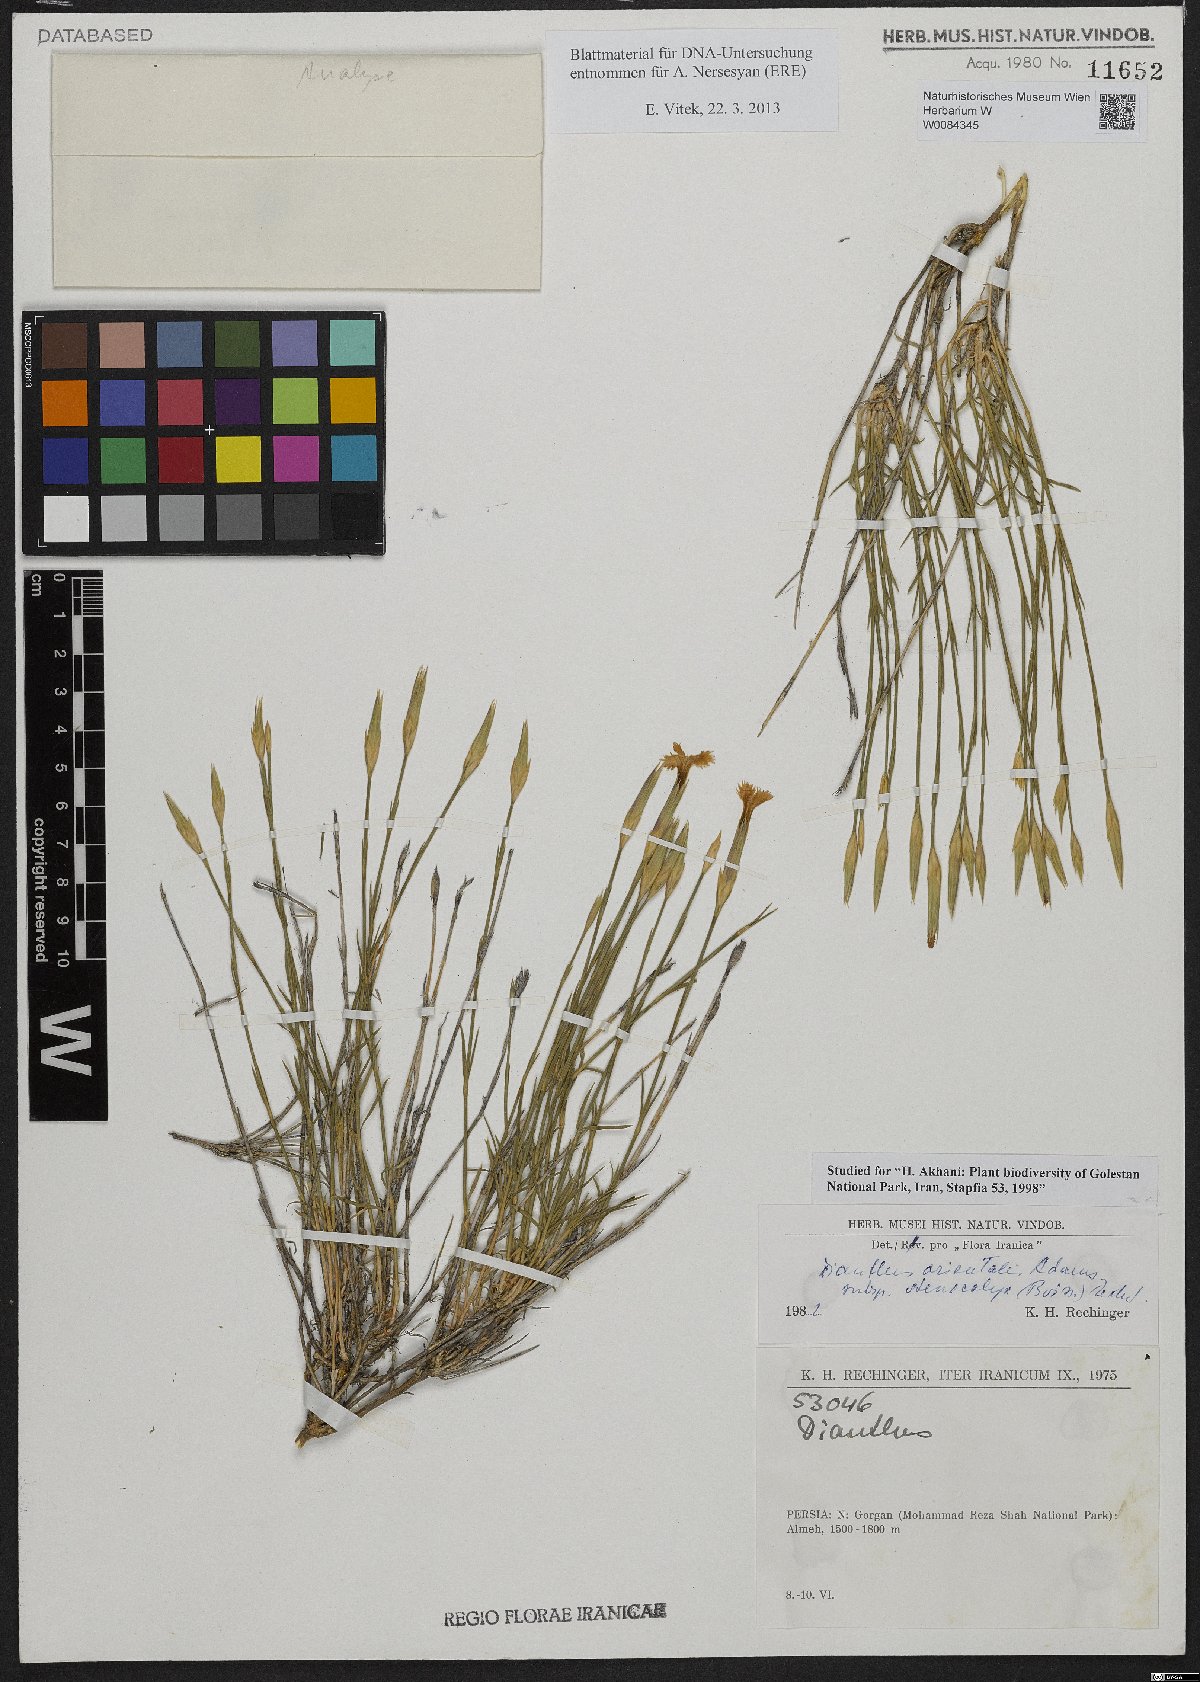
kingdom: Plantae
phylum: Tracheophyta
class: Magnoliopsida
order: Caryophyllales
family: Caryophyllaceae
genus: Dianthus
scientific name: Dianthus orientalis
